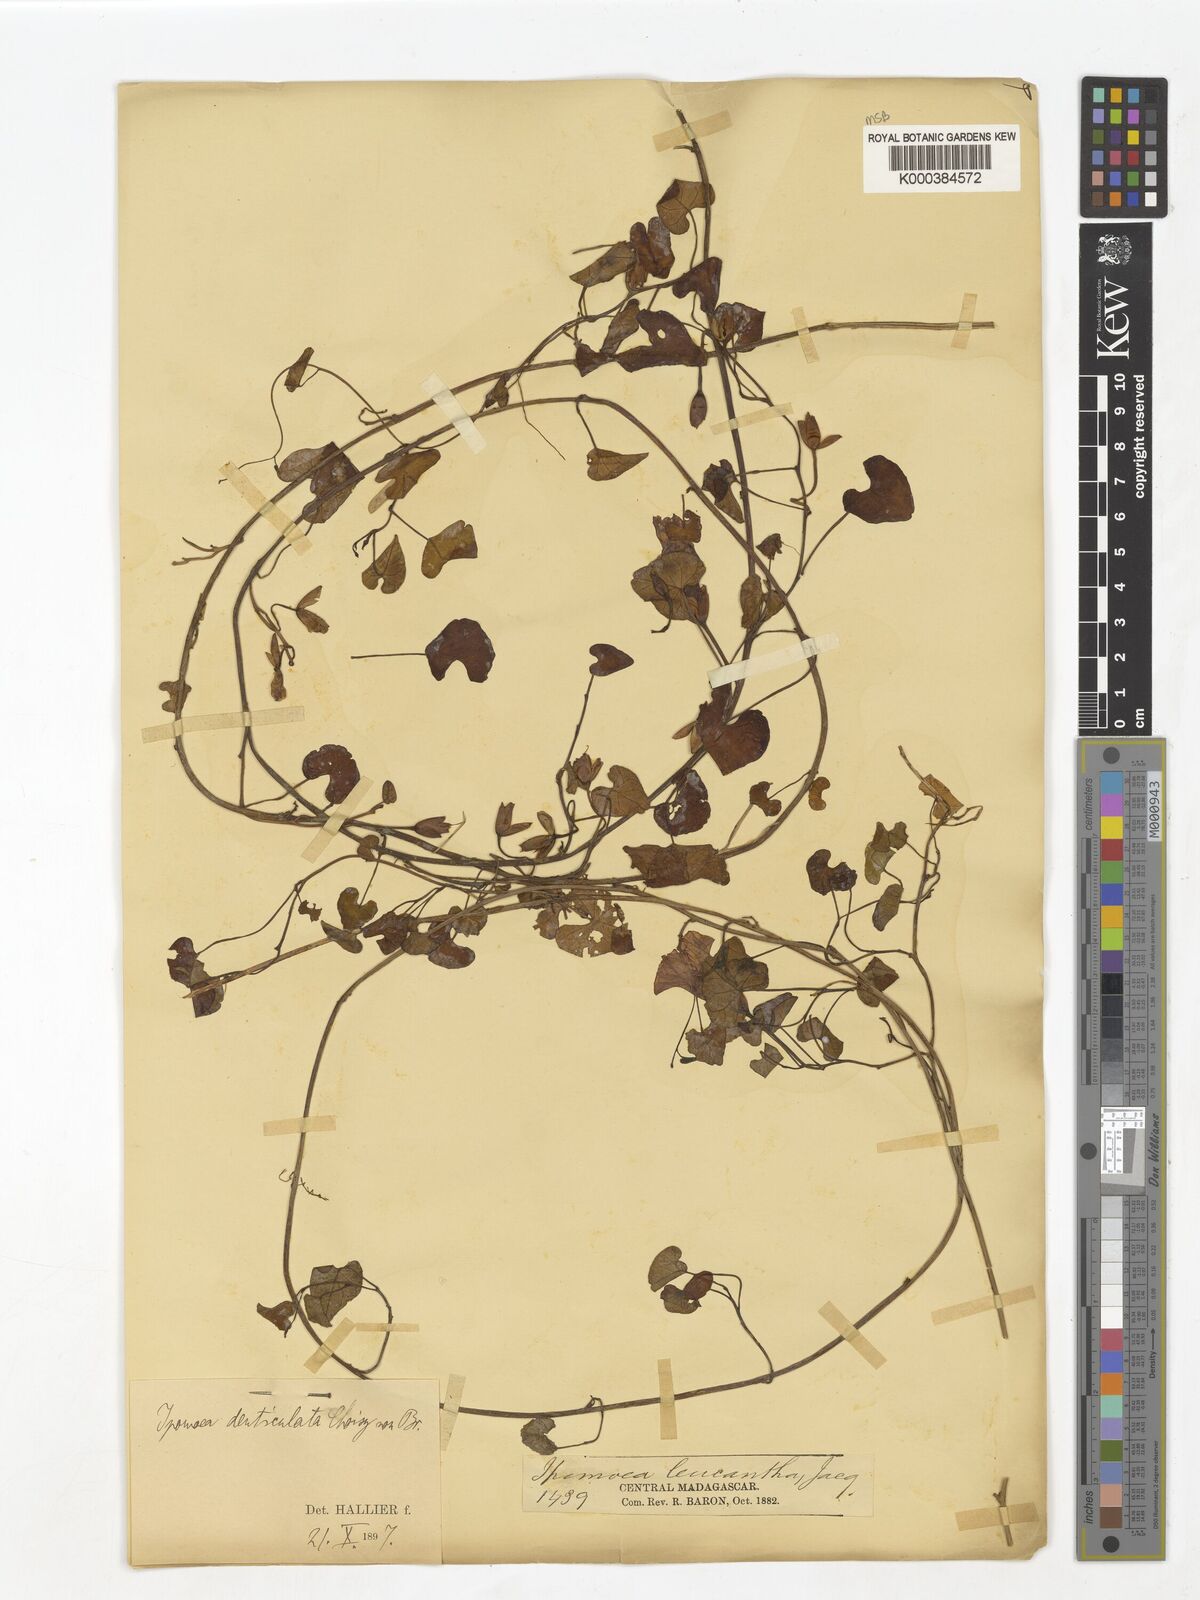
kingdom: Plantae
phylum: Tracheophyta
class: Magnoliopsida
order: Solanales
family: Convolvulaceae
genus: Ipomoea
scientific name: Ipomoea imperati
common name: Fiddle-leaf morning-glory
